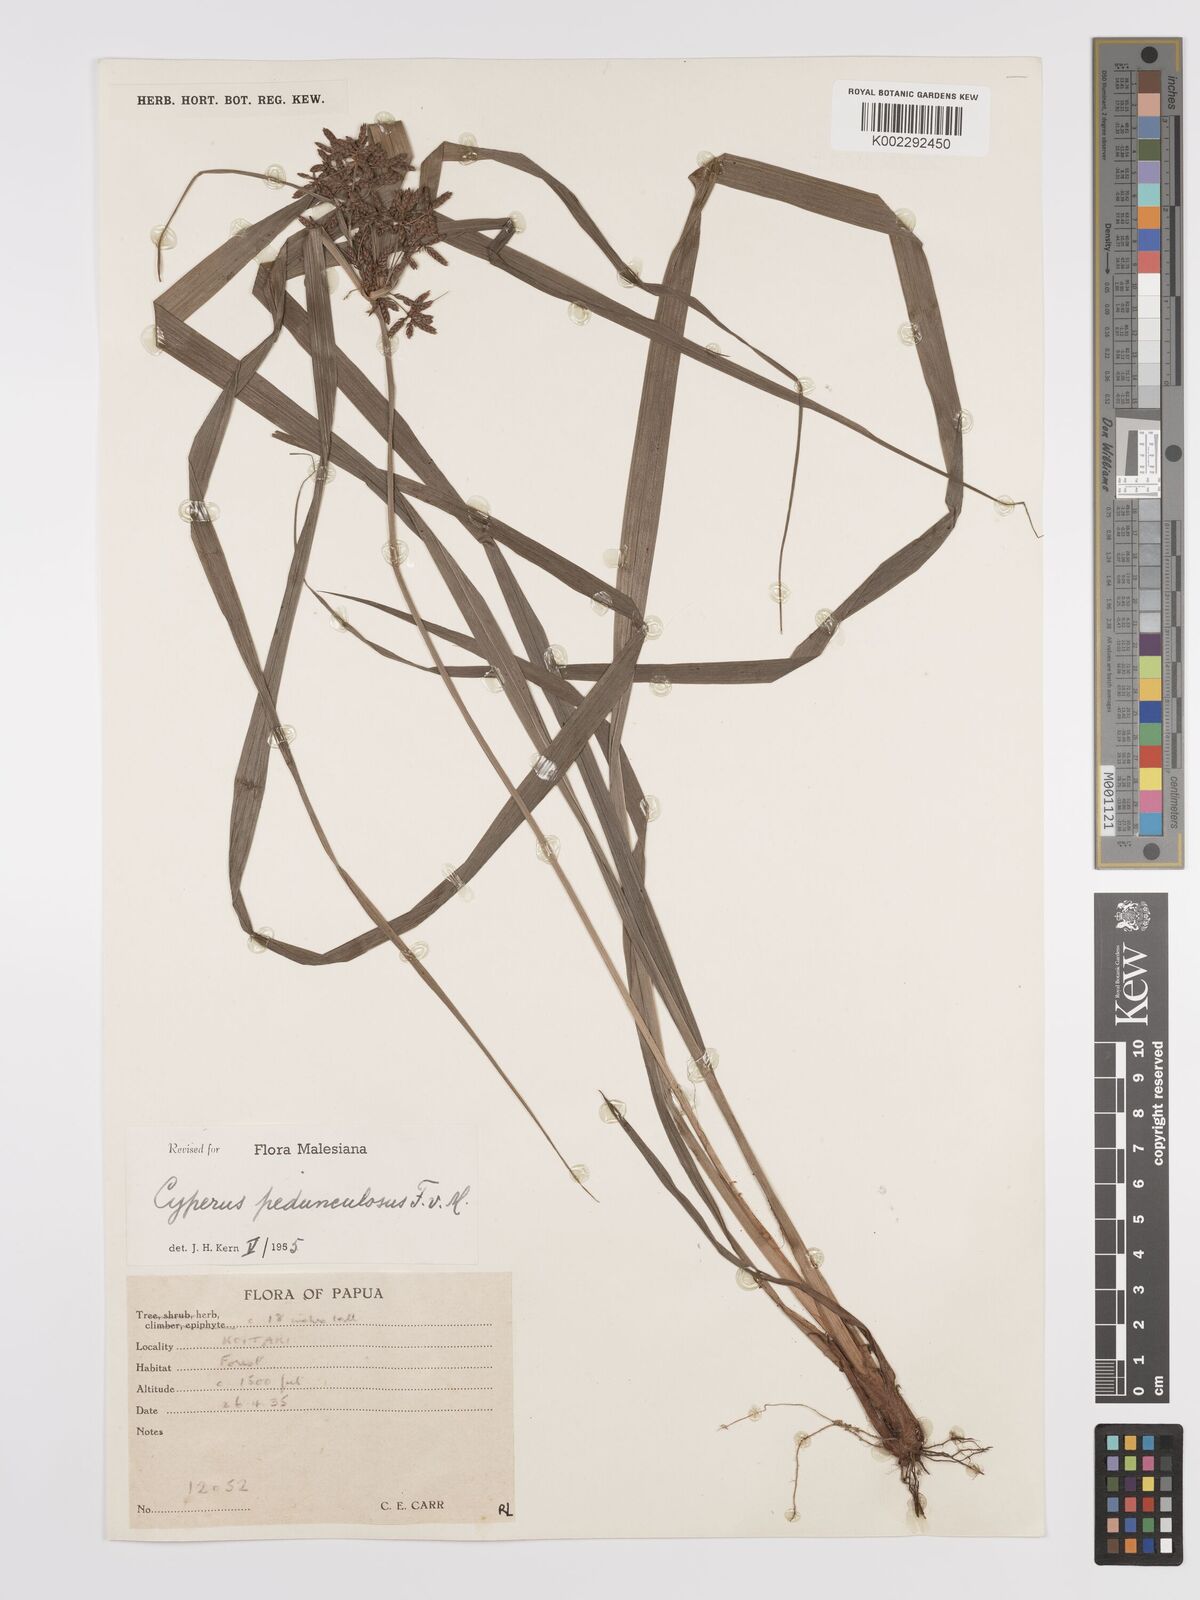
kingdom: Plantae
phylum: Tracheophyta
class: Liliopsida
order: Poales
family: Cyperaceae
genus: Cyperus
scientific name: Cyperus pedunculosus
